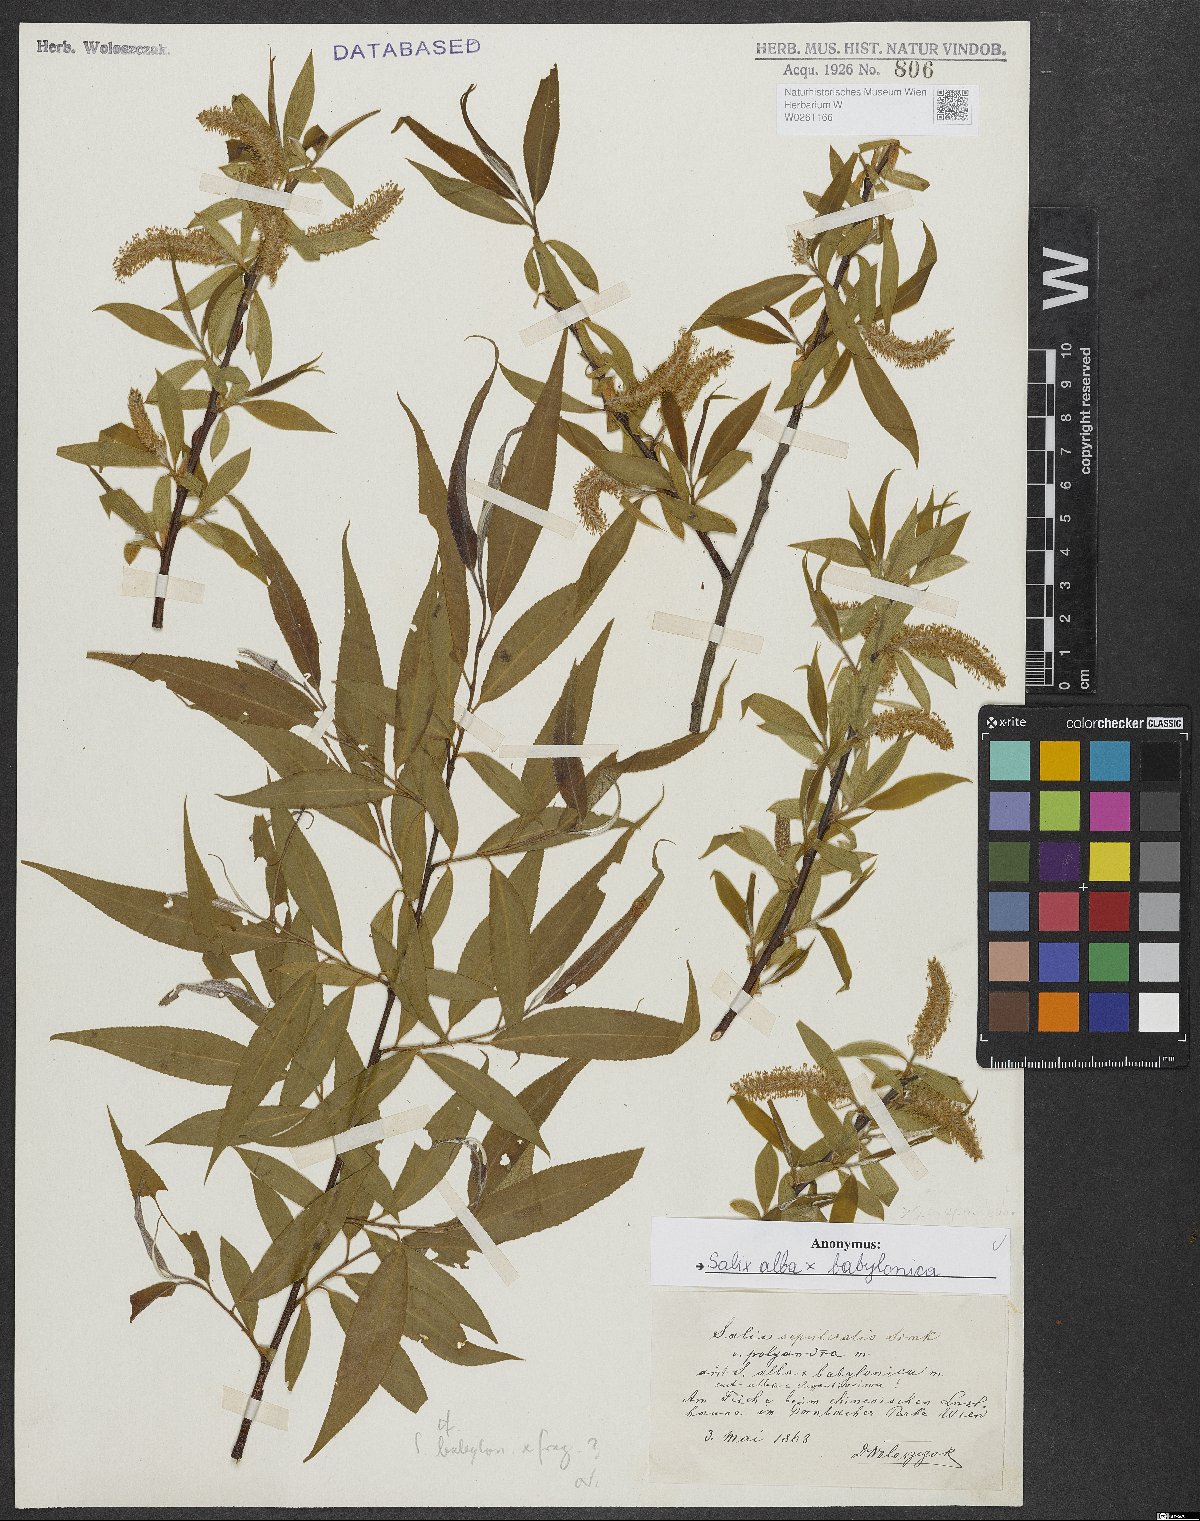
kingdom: Plantae
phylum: Tracheophyta
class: Magnoliopsida
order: Malpighiales
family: Salicaceae
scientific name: Salicaceae
